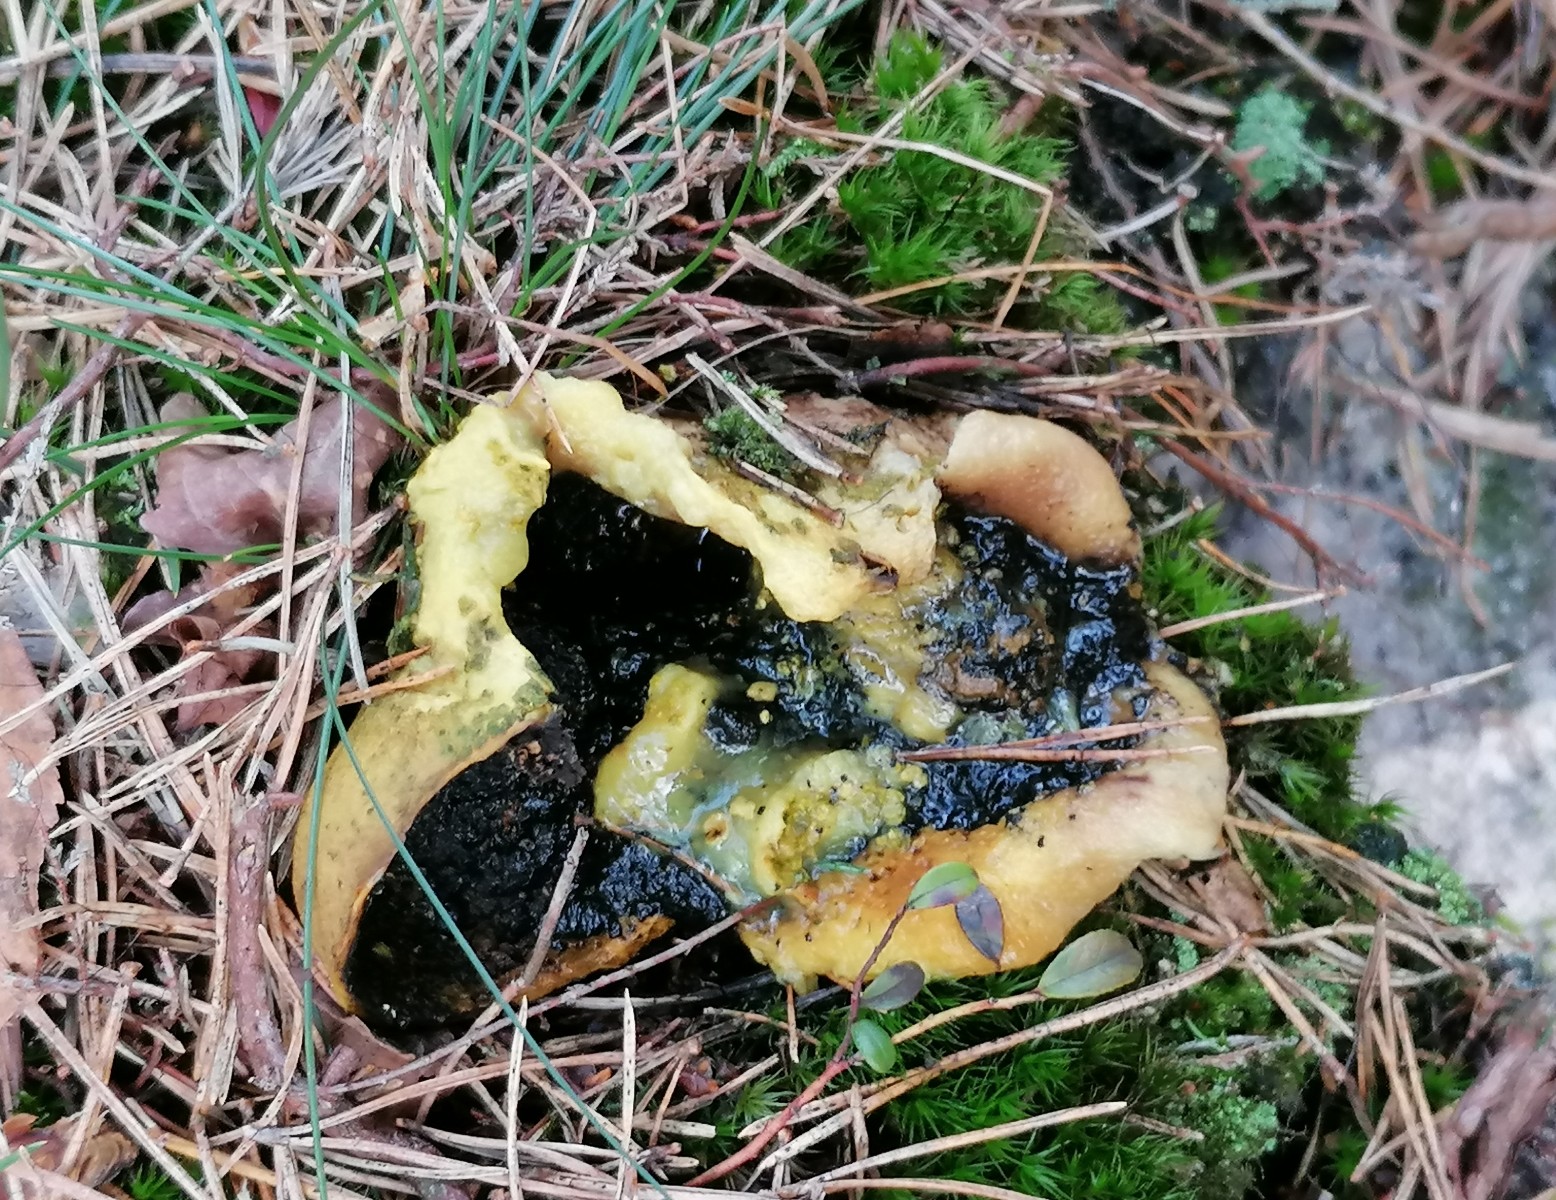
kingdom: Fungi
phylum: Basidiomycota
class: Agaricomycetes
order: Boletales
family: Sclerodermataceae
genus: Scleroderma
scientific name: Scleroderma citrinum
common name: almindelig bruskbold
